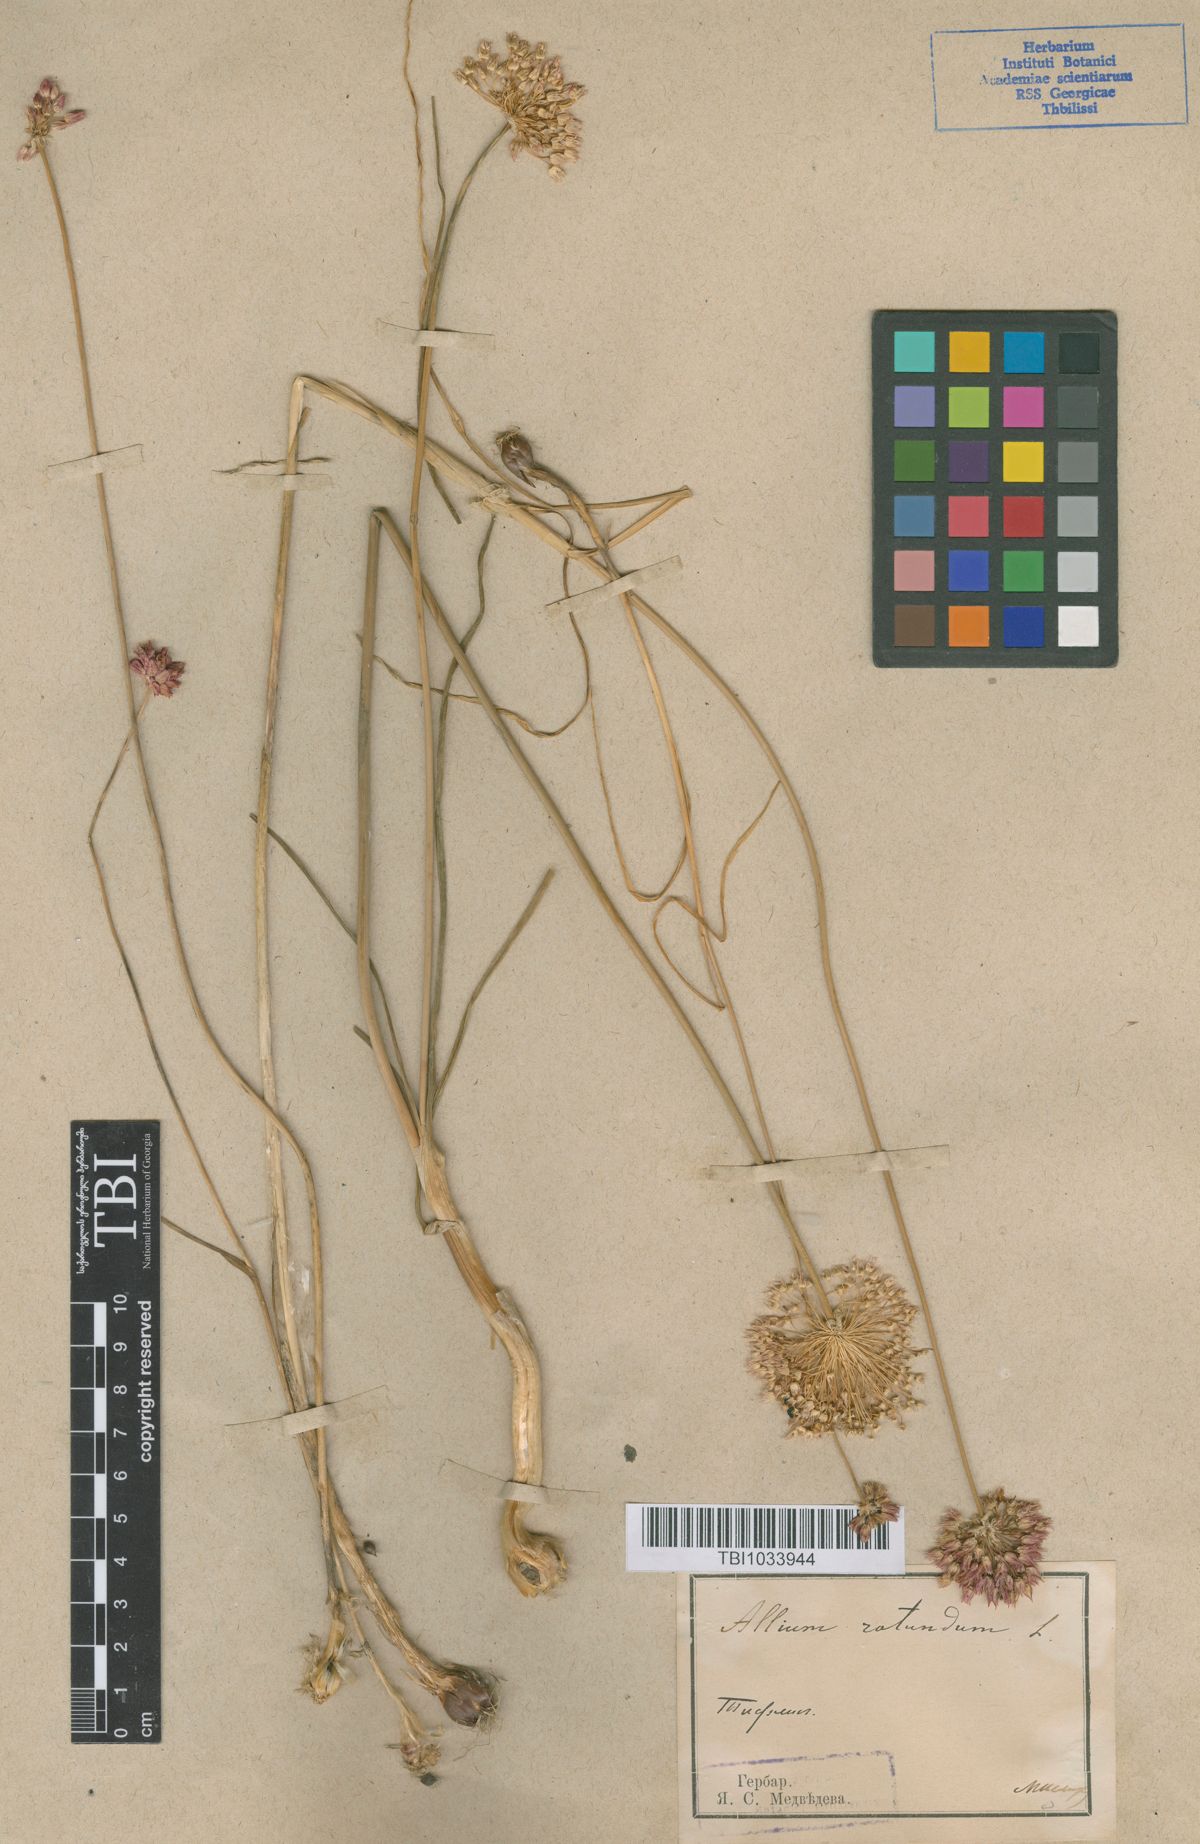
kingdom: Plantae
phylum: Tracheophyta
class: Liliopsida
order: Asparagales
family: Amaryllidaceae
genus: Allium
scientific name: Allium rubellum
